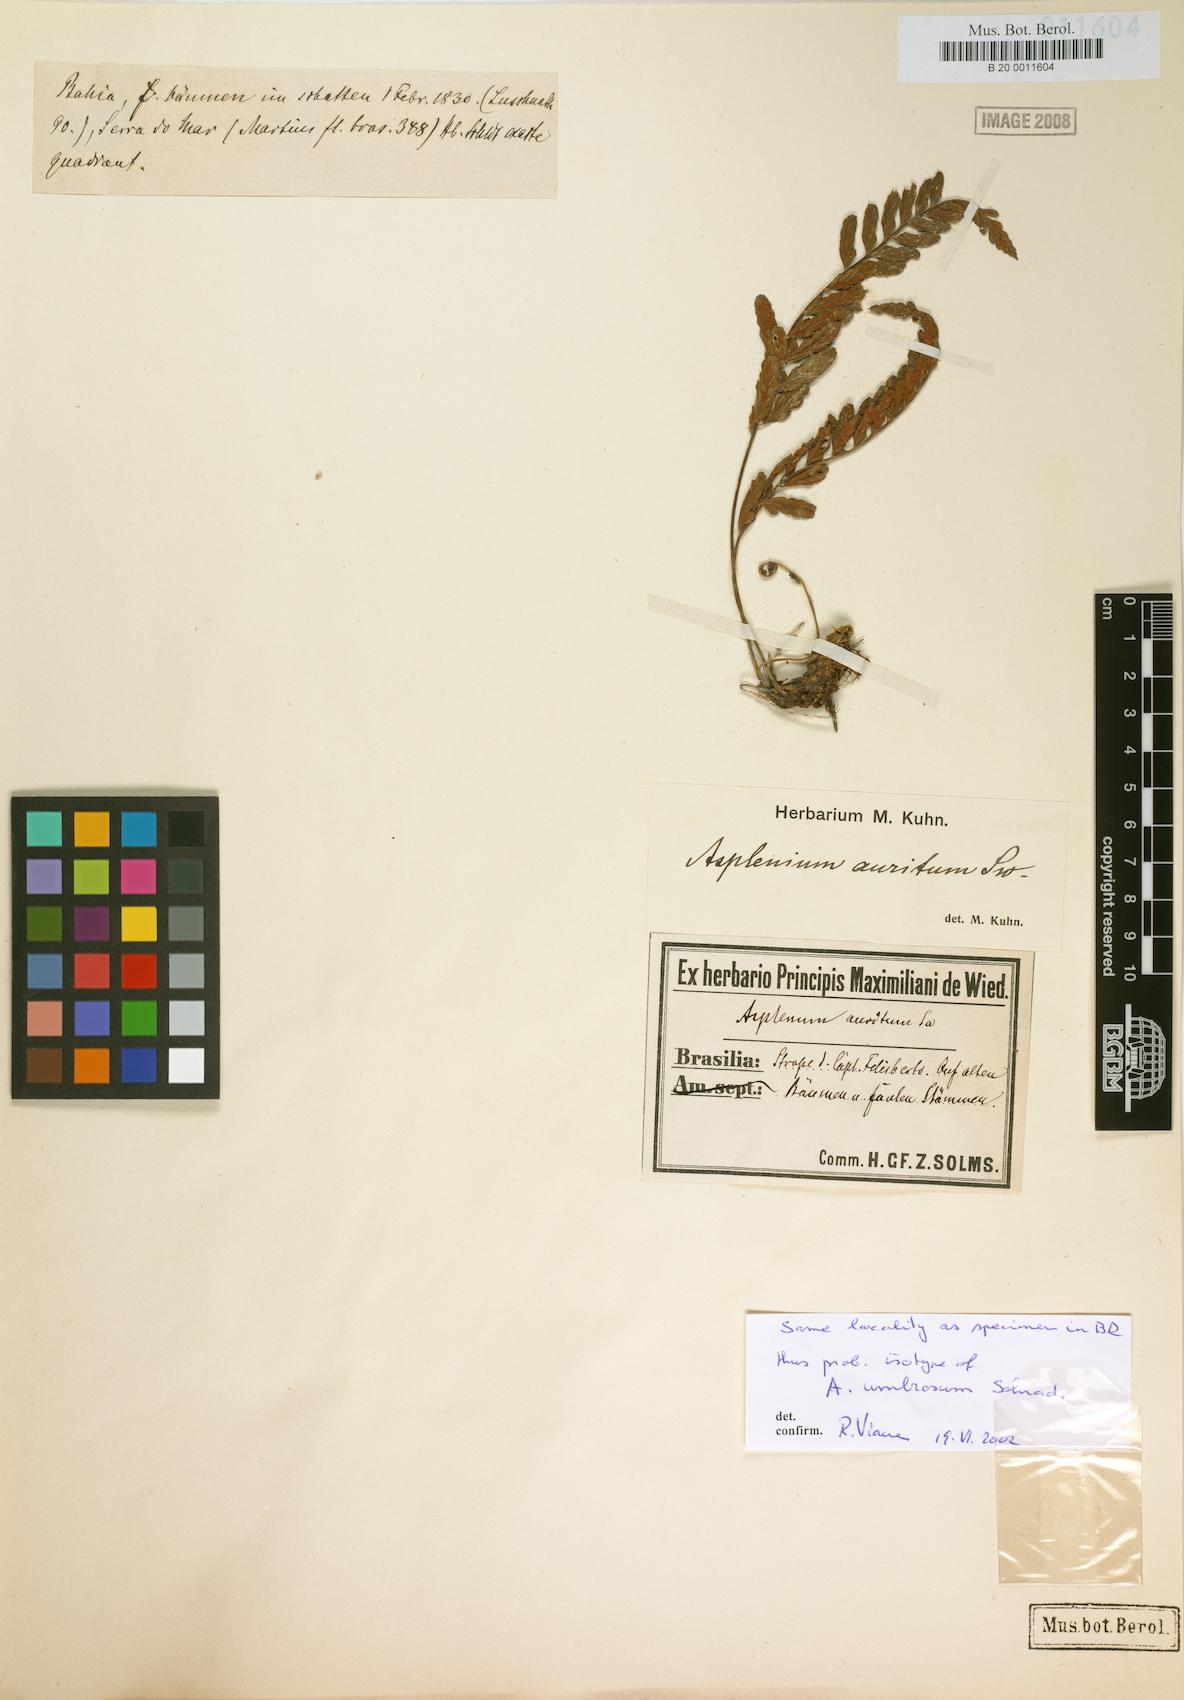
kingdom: Plantae
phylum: Tracheophyta
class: Polypodiopsida
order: Polypodiales
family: Aspleniaceae
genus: Asplenium
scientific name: Asplenium auritum
